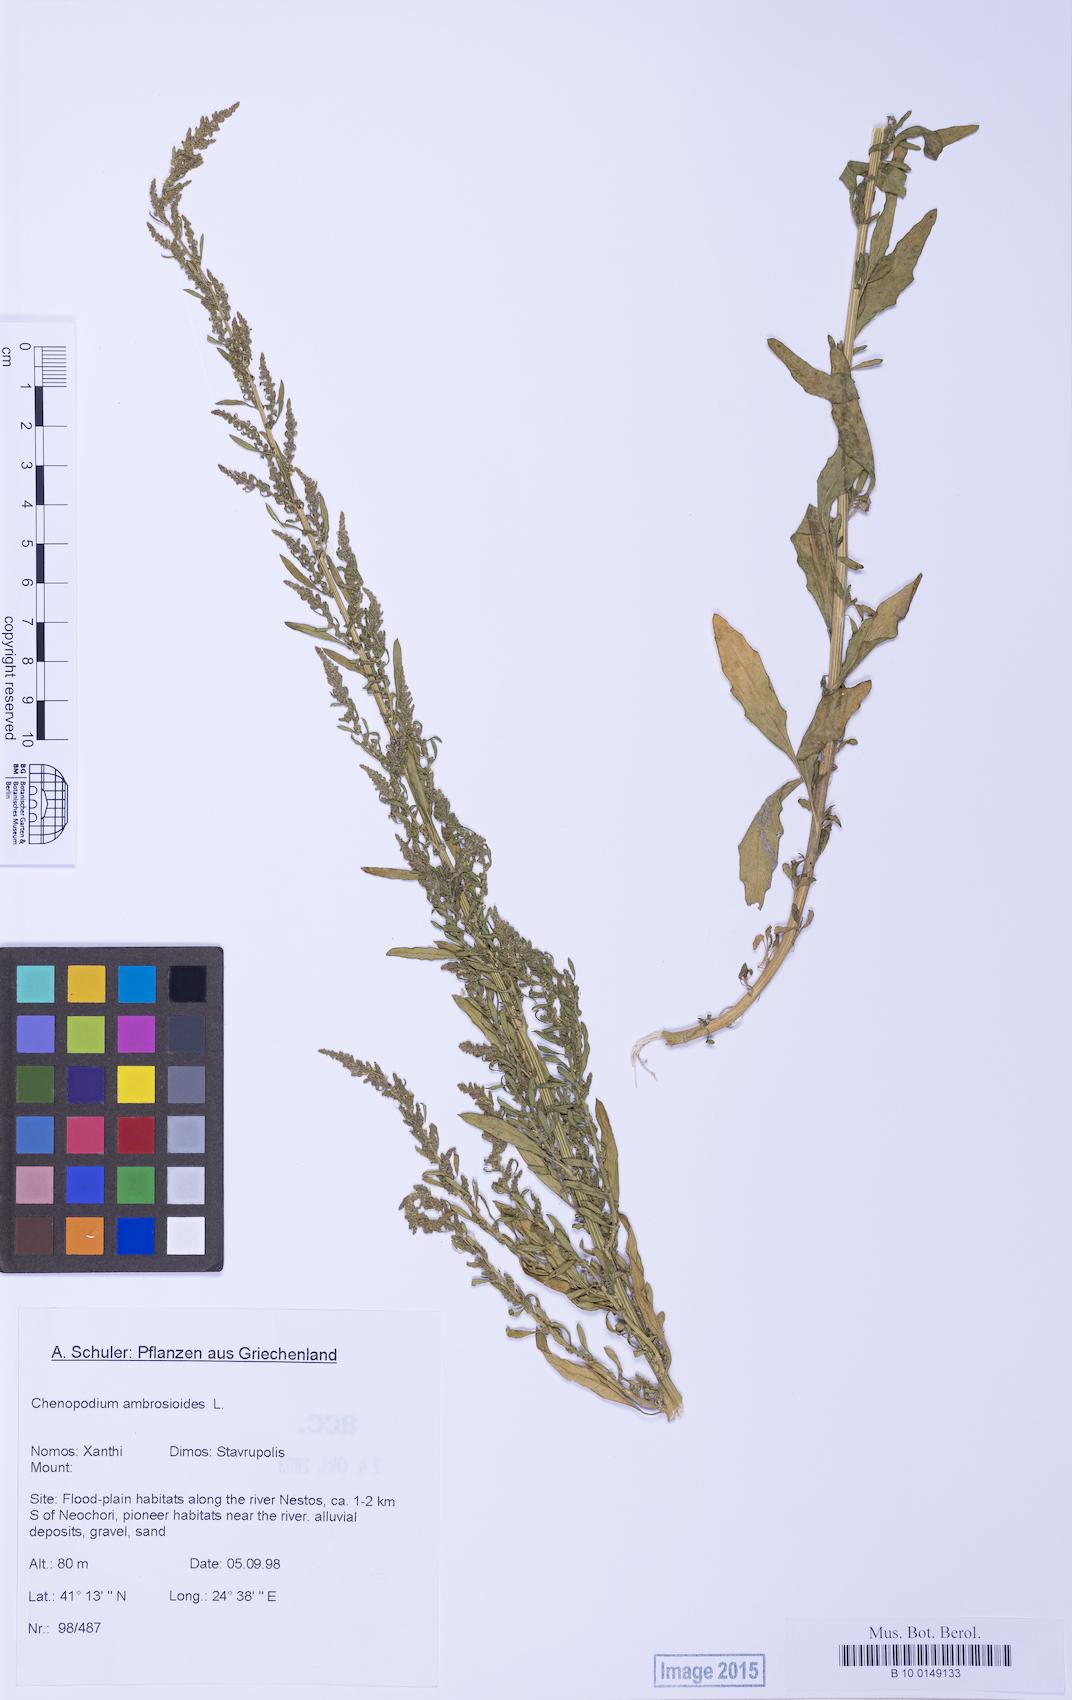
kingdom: Plantae
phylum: Tracheophyta
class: Magnoliopsida
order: Caryophyllales
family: Amaranthaceae
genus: Dysphania
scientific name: Dysphania ambrosioides
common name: Wormseed
